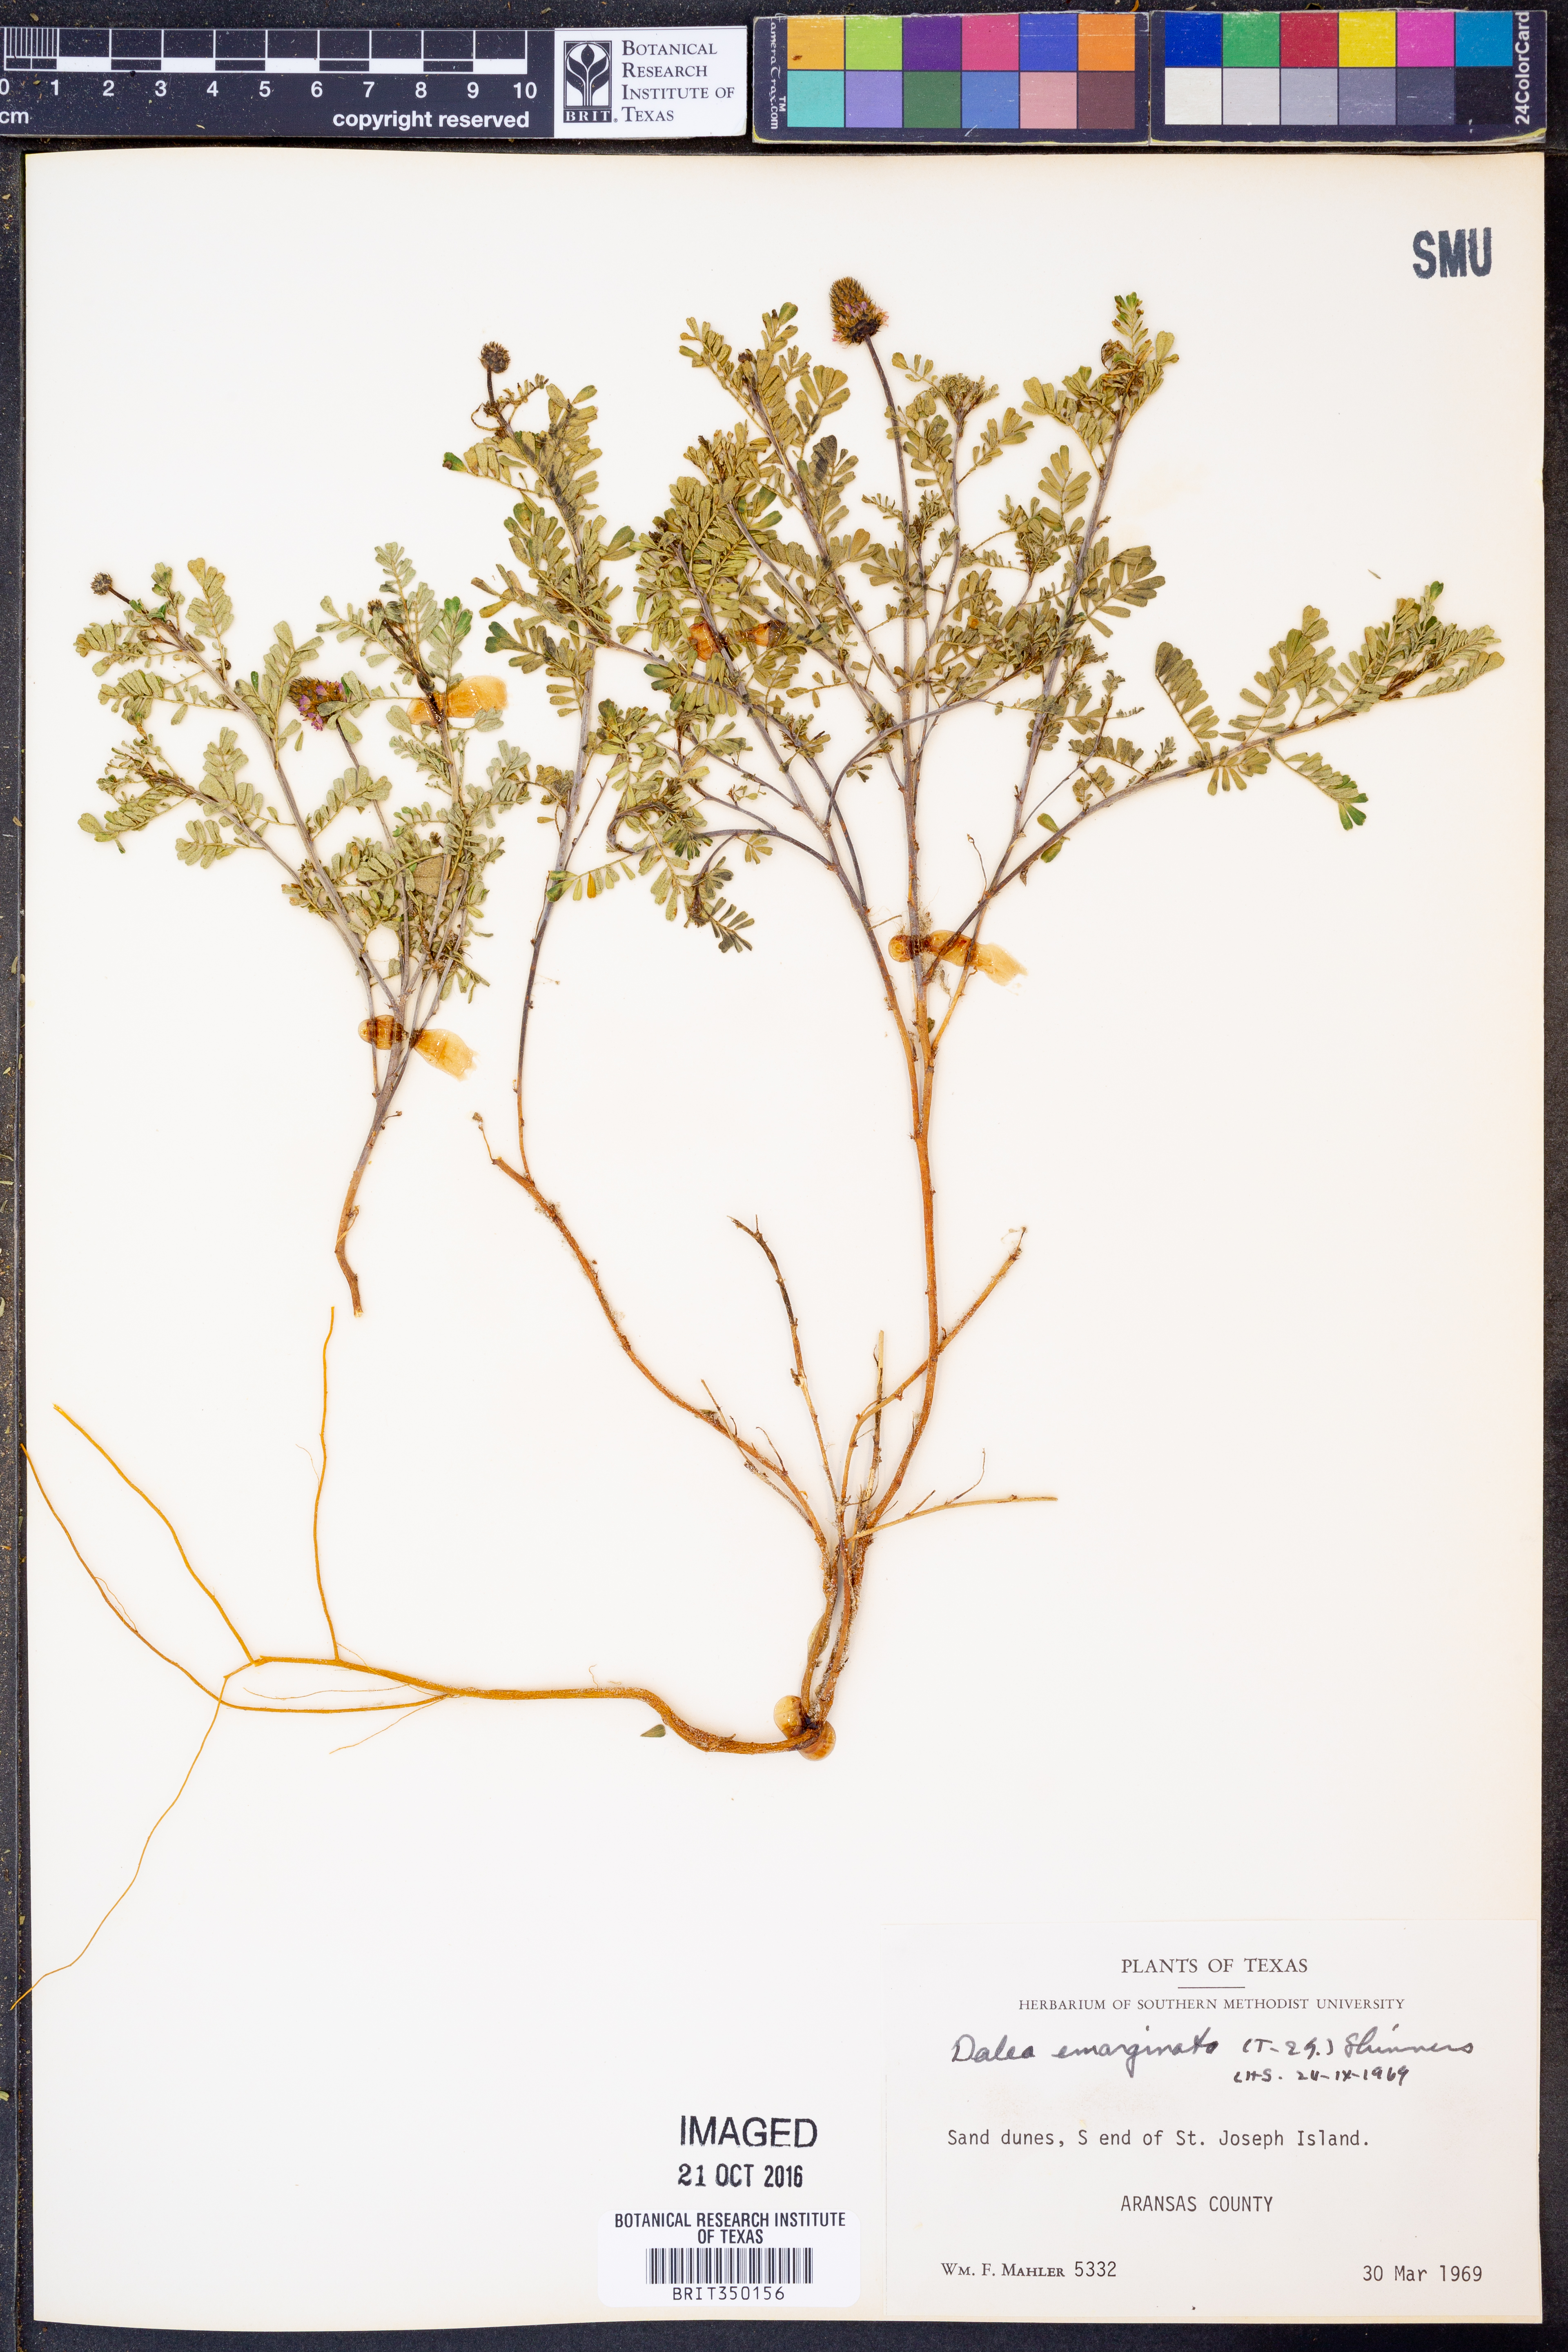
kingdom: Plantae
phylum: Tracheophyta
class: Magnoliopsida
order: Fabales
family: Fabaceae
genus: Dalea
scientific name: Dalea emarginata
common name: Wedgeleaf prairie clover
